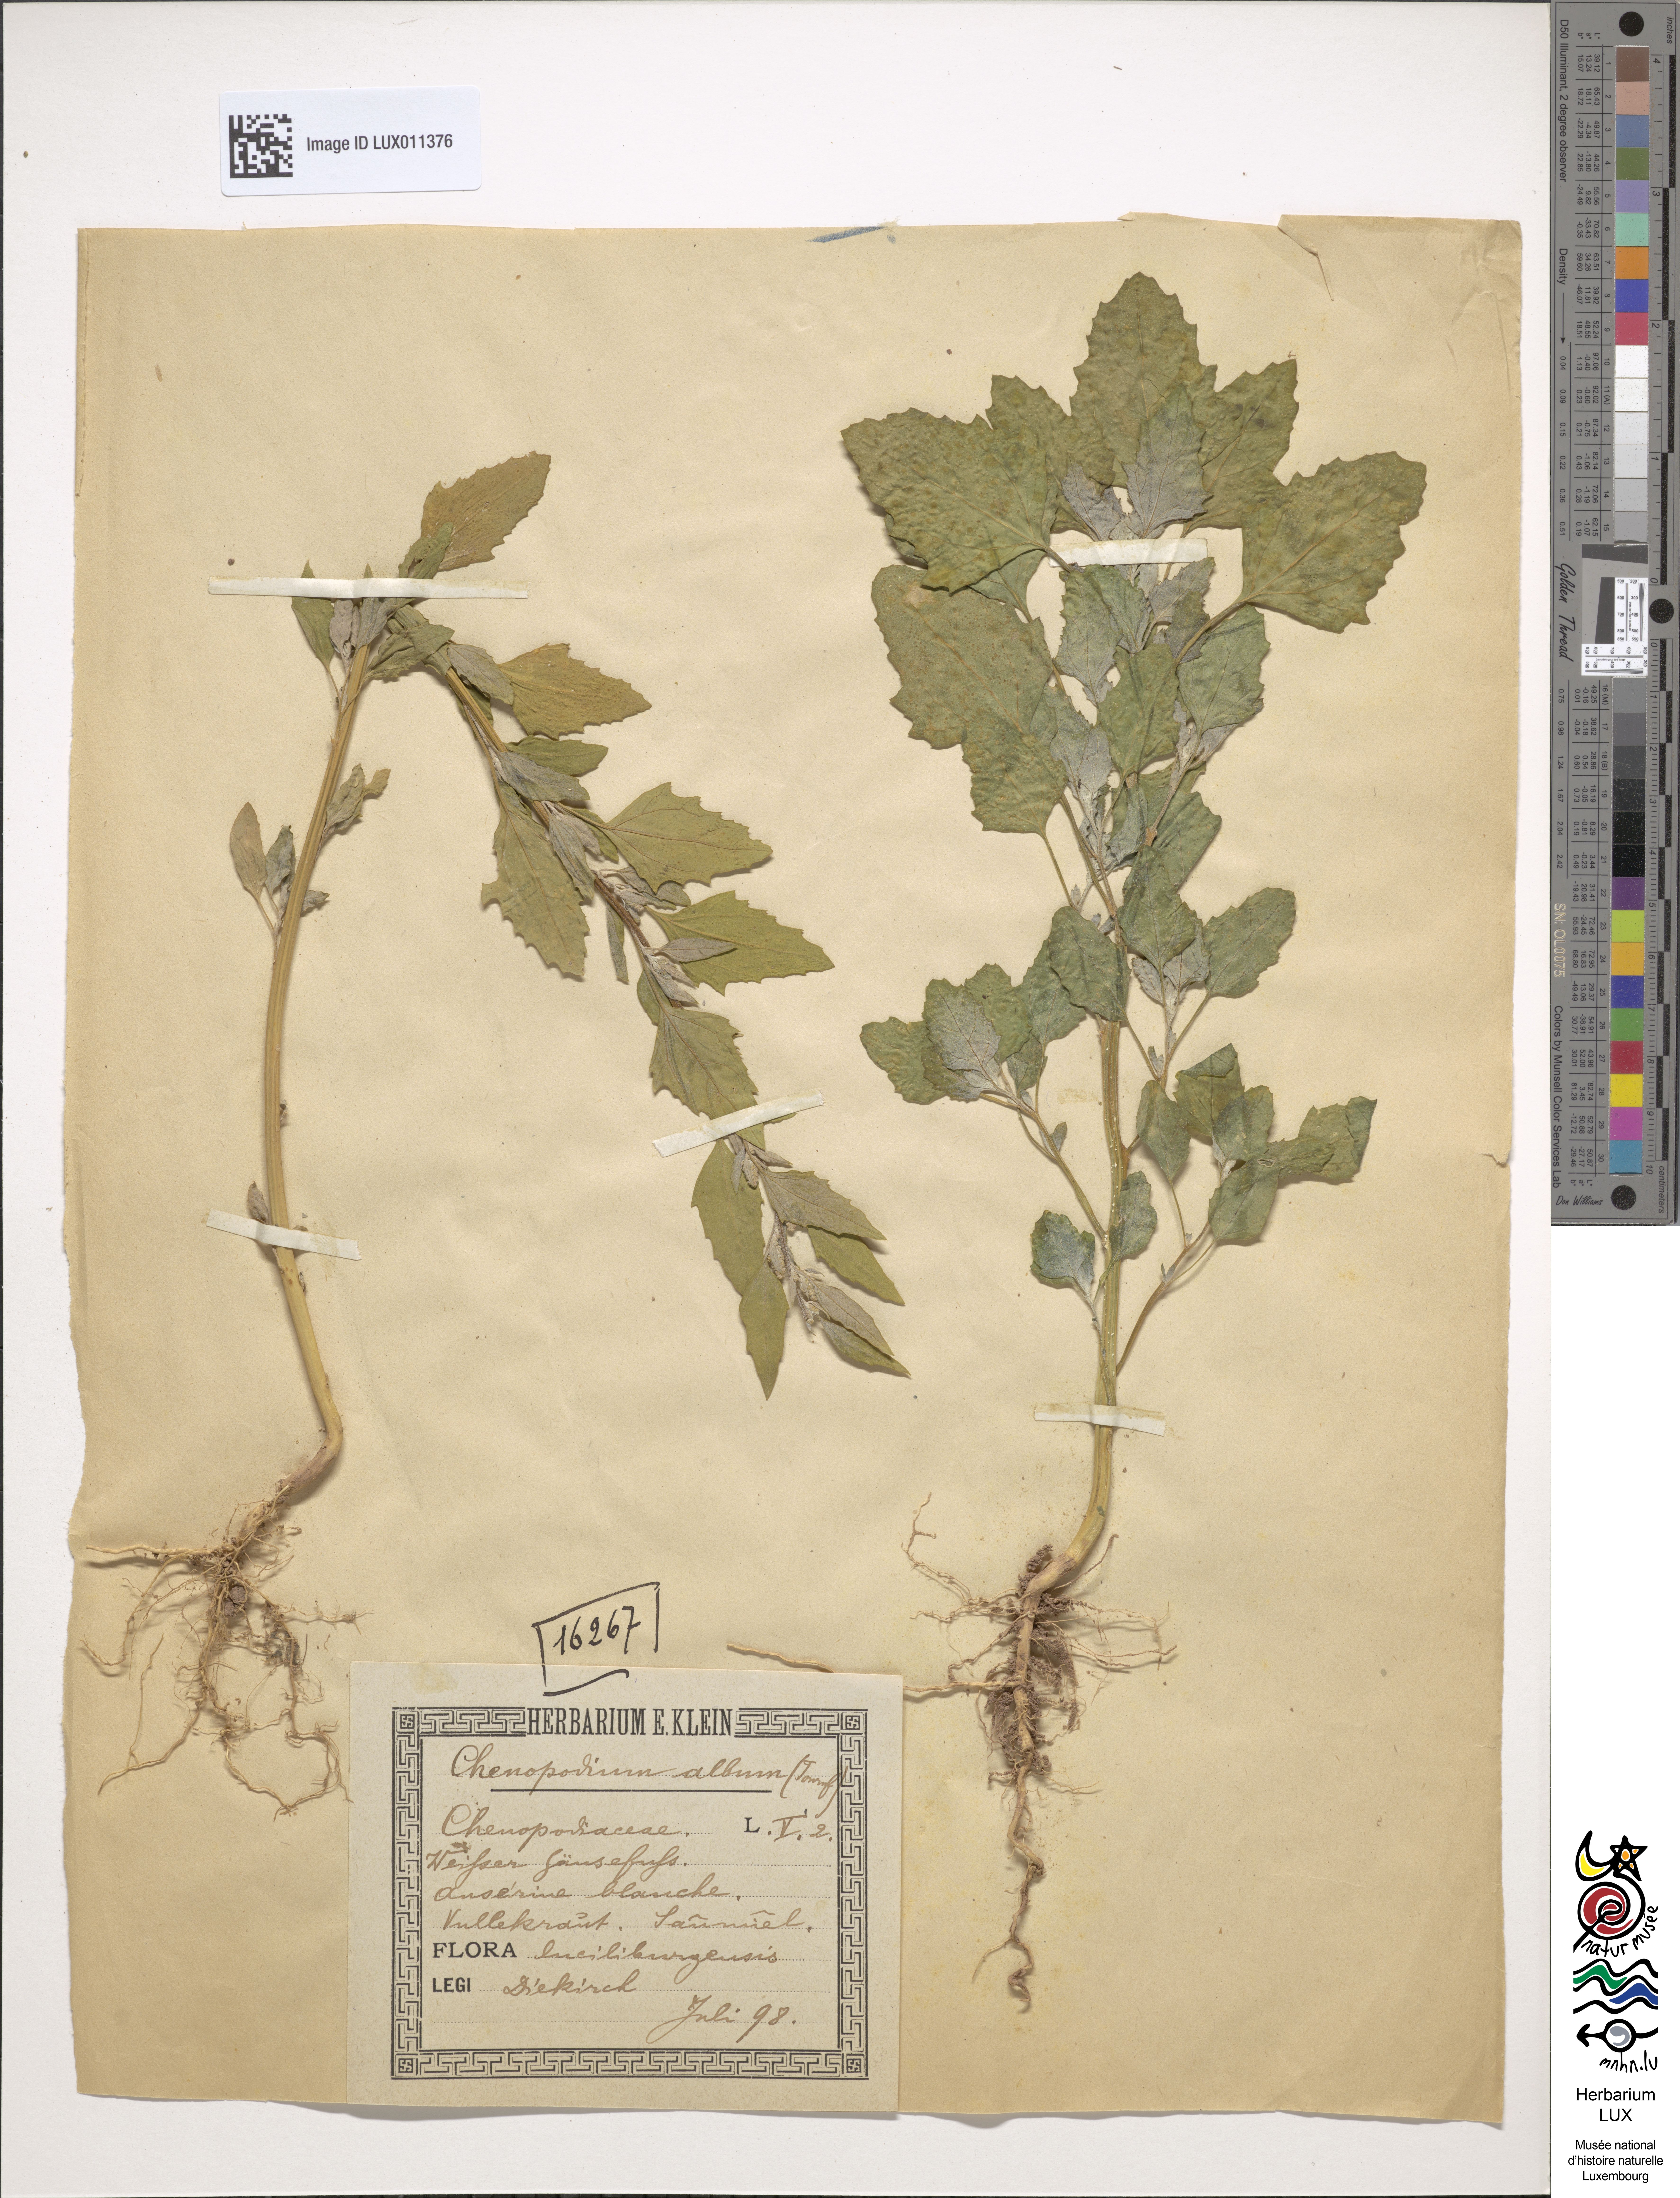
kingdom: Plantae
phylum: Tracheophyta
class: Magnoliopsida
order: Caryophyllales
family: Amaranthaceae
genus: Chenopodium
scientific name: Chenopodium album
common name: Fat-hen
